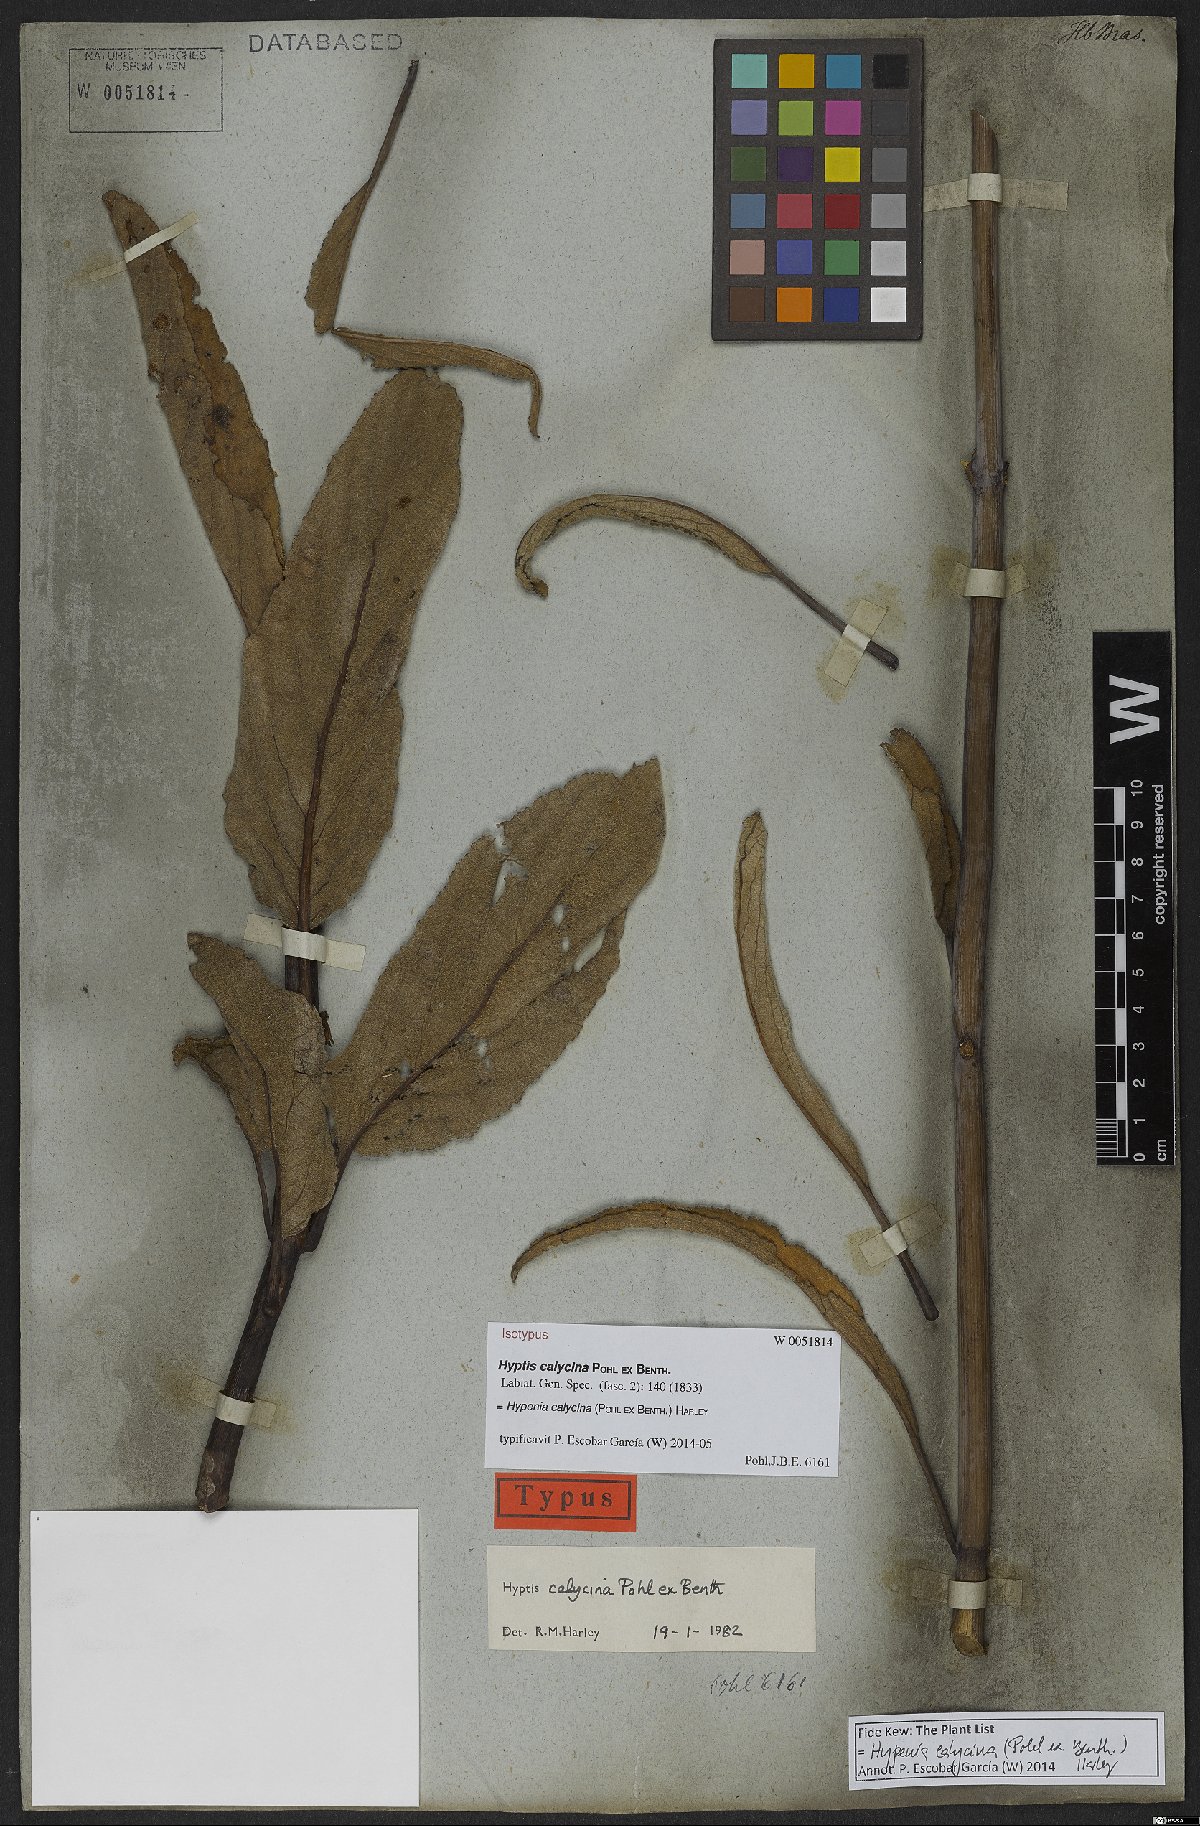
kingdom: Plantae
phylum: Tracheophyta
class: Magnoliopsida
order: Lamiales
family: Lamiaceae
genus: Hypenia
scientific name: Hypenia calycina
